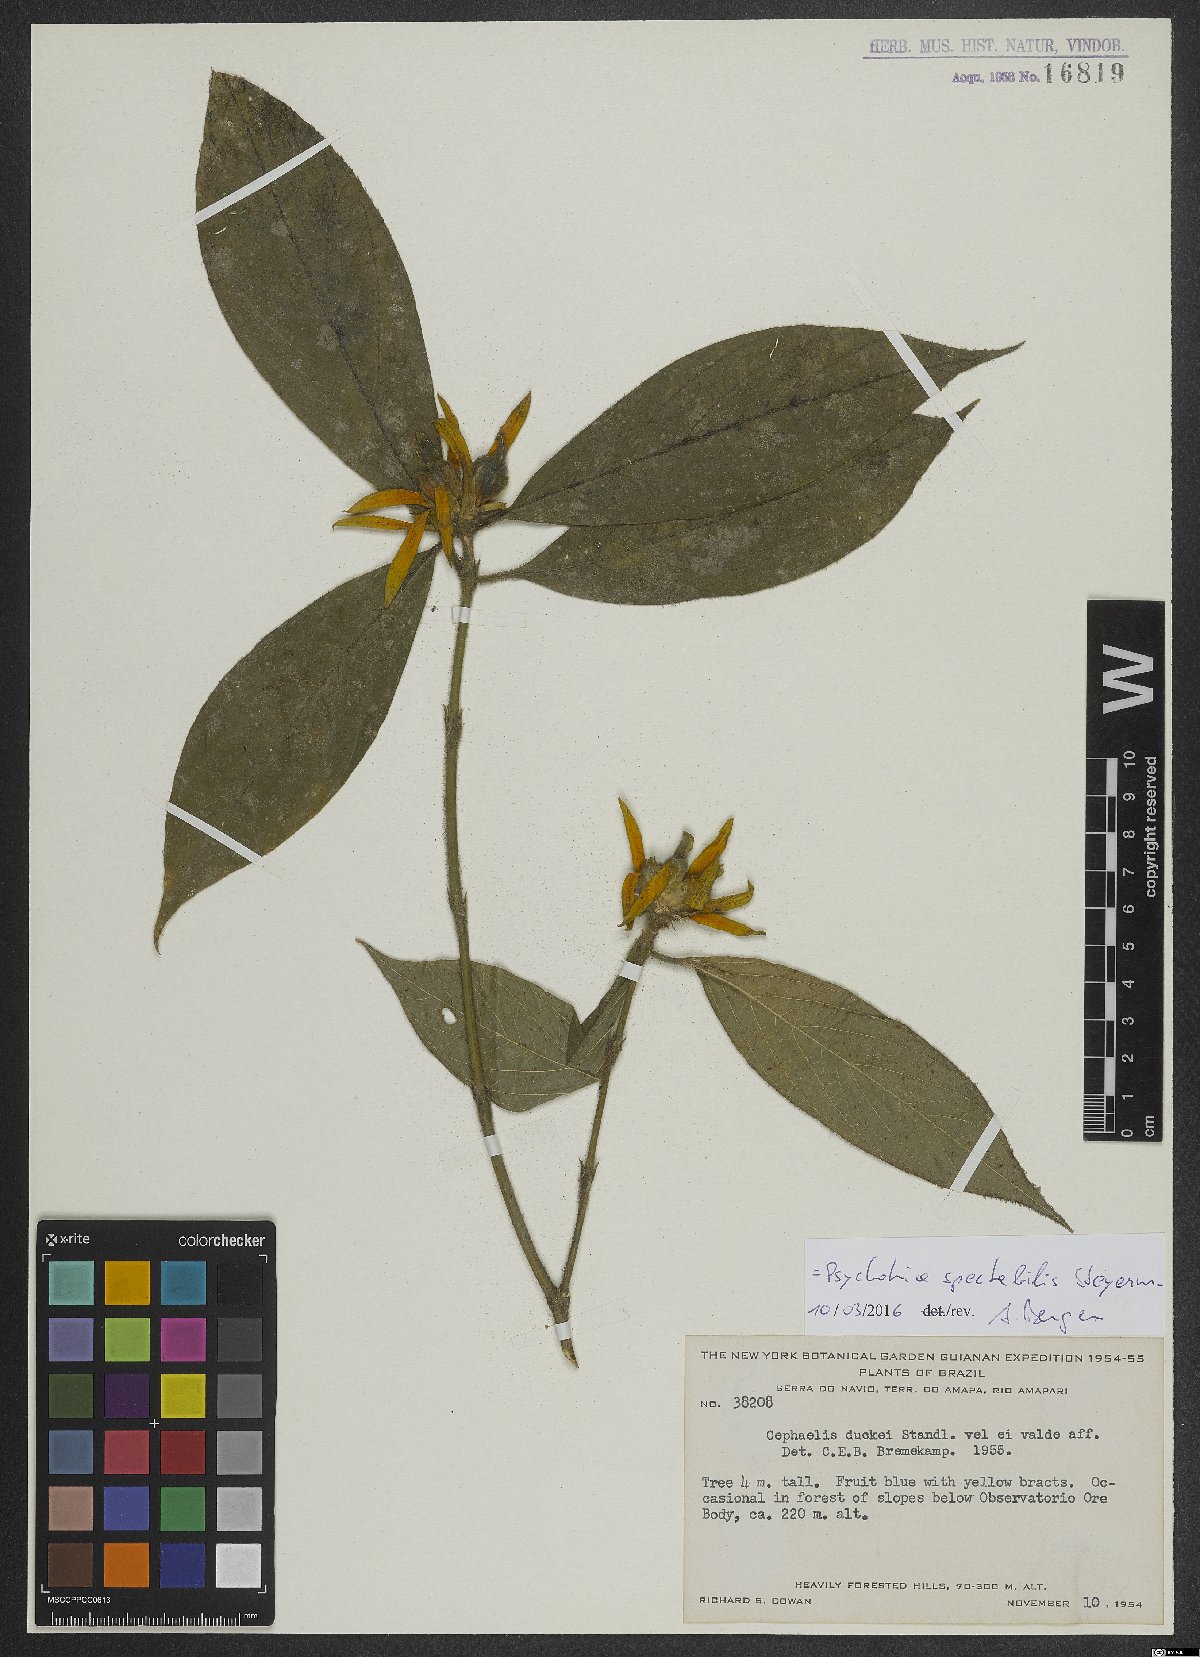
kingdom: Plantae
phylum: Tracheophyta
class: Magnoliopsida
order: Gentianales
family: Rubiaceae
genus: Palicourea
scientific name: Palicourea spectabilis
